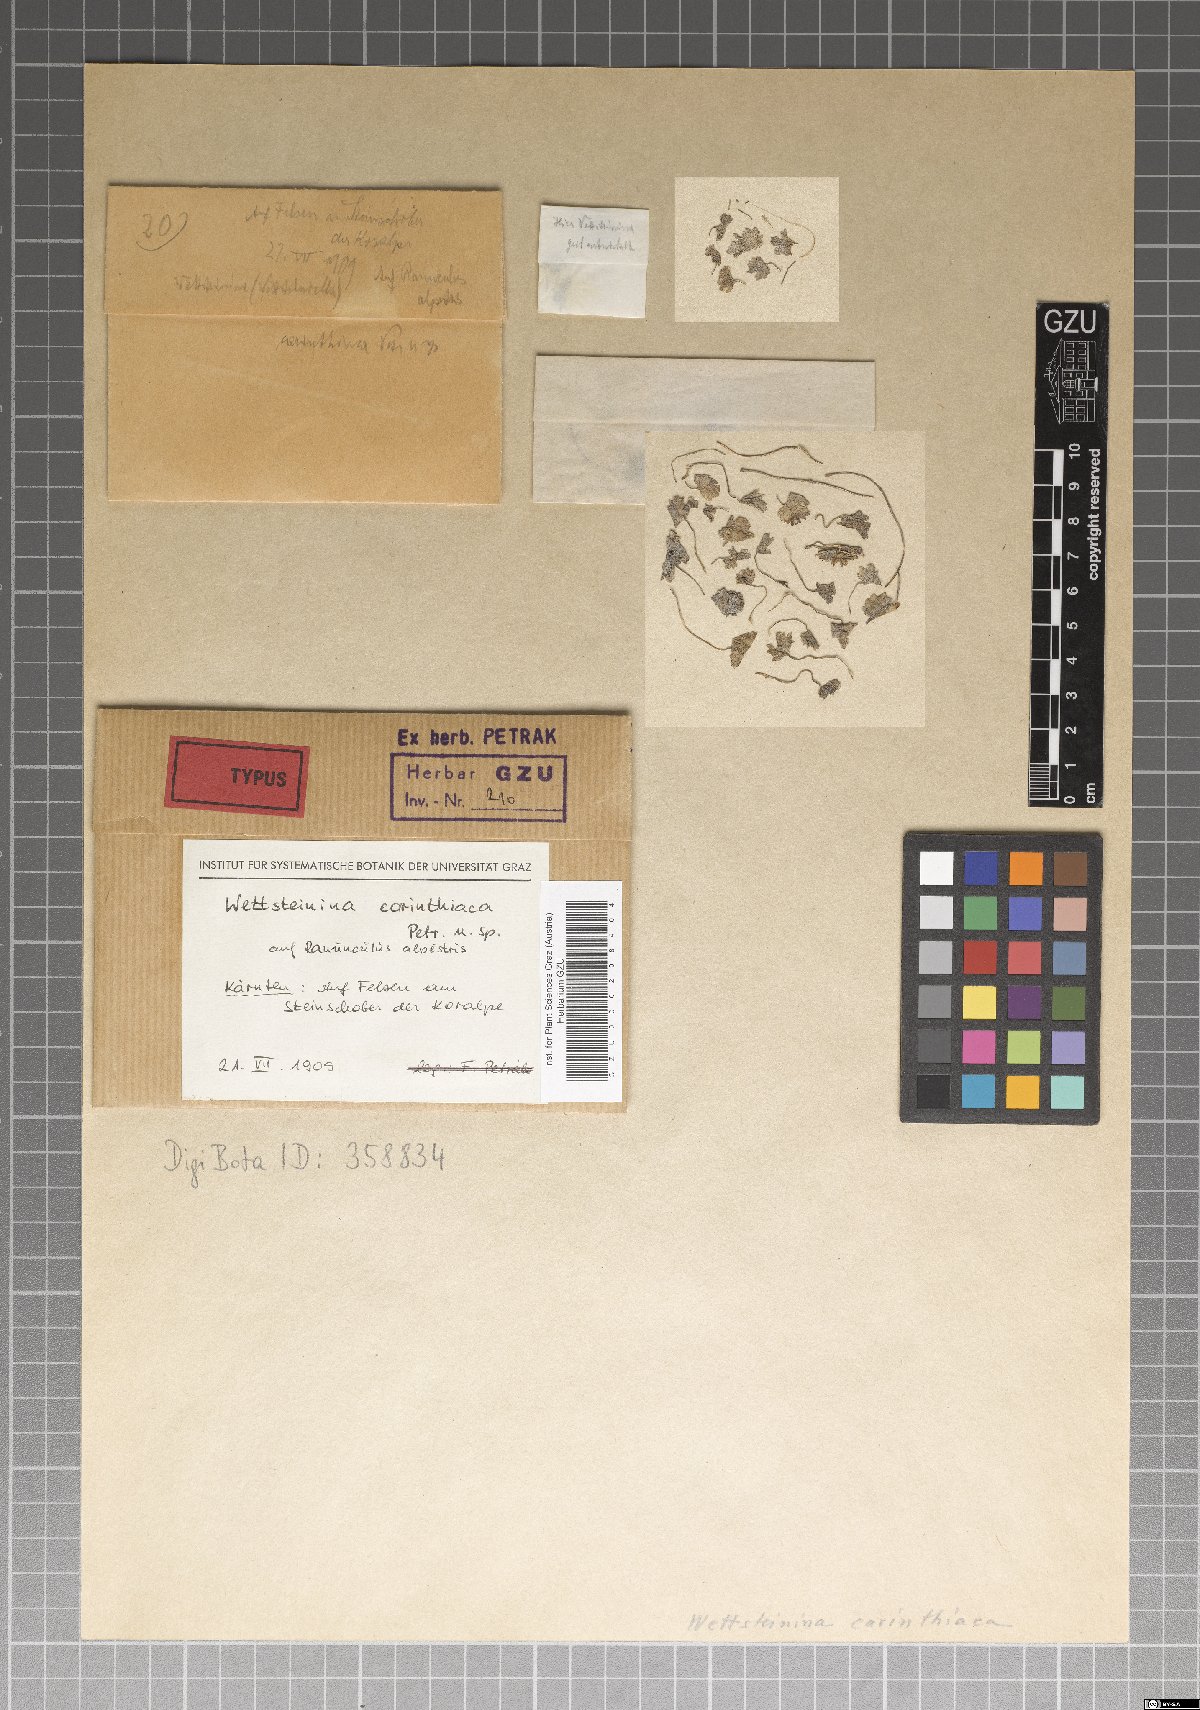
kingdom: Fungi
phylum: Ascomycota
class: Dothideomycetes
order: Pleosporales
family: Pleosporaceae
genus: Wettsteinina
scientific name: Wettsteinina carinthiaca
